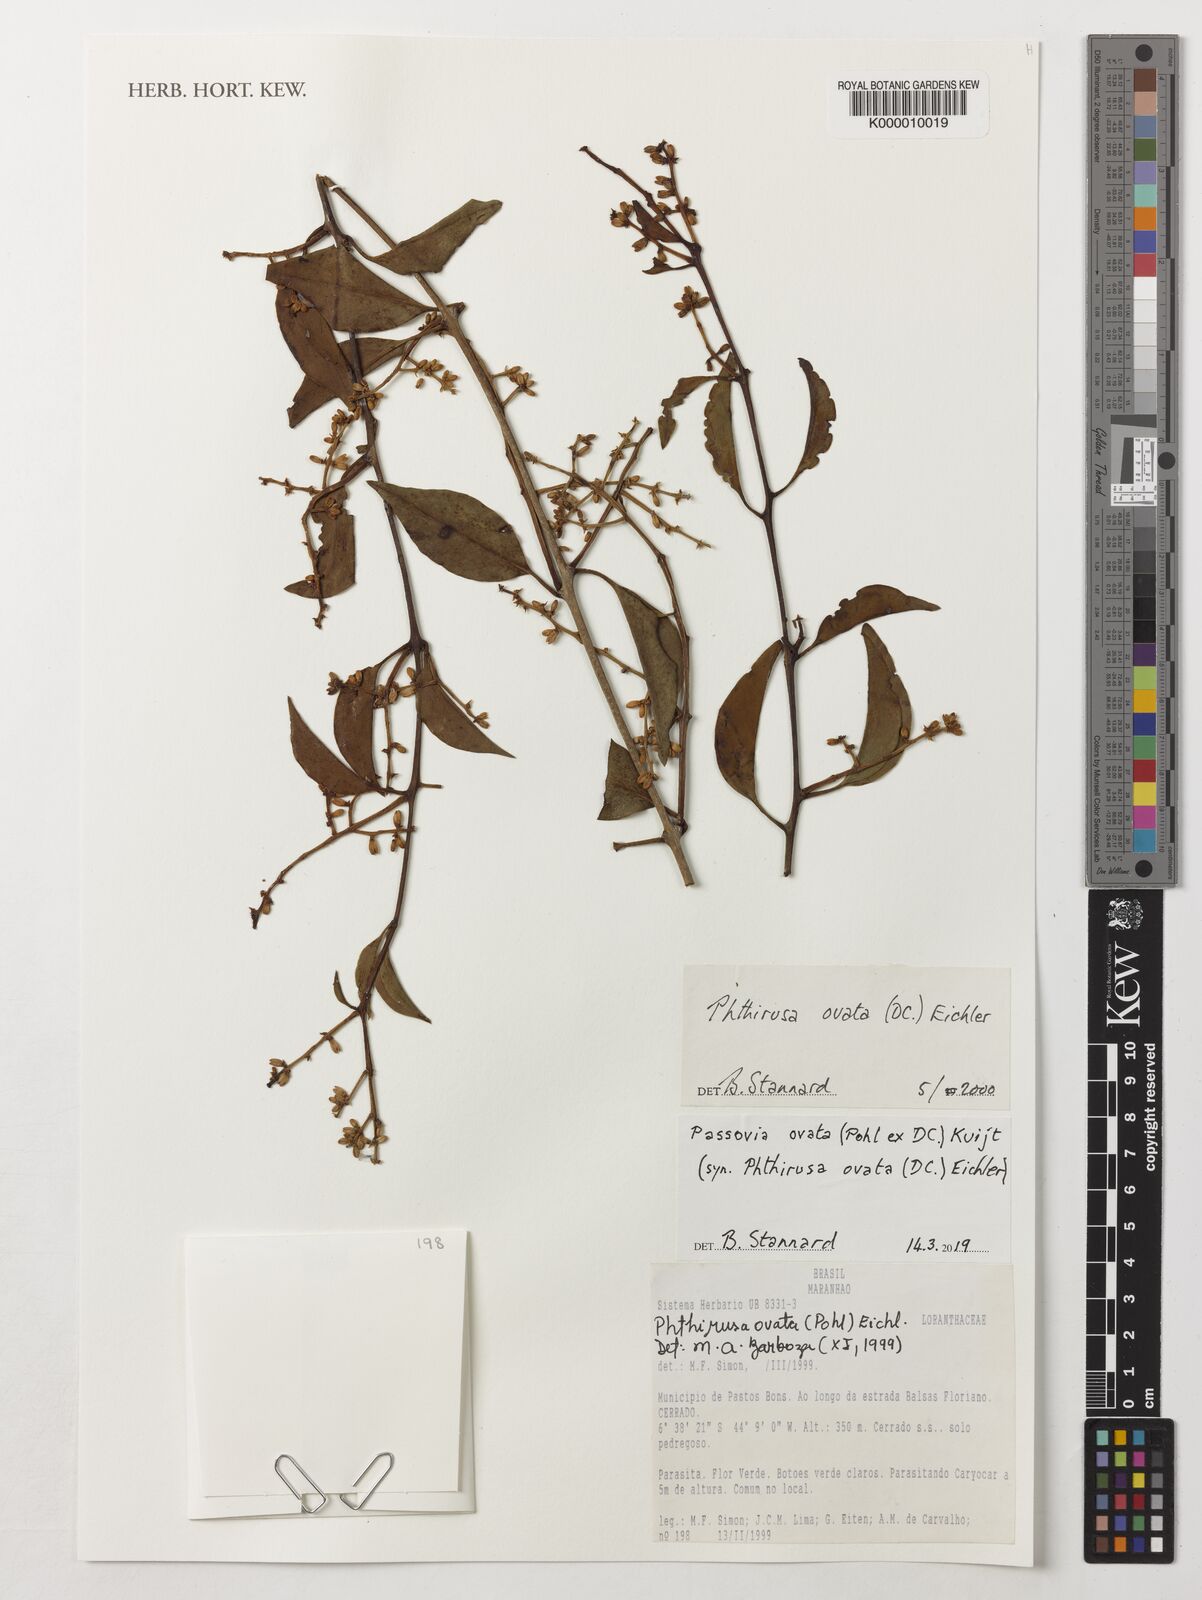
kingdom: Plantae
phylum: Tracheophyta
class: Magnoliopsida
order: Santalales
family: Loranthaceae
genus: Passovia
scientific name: Passovia ovata
